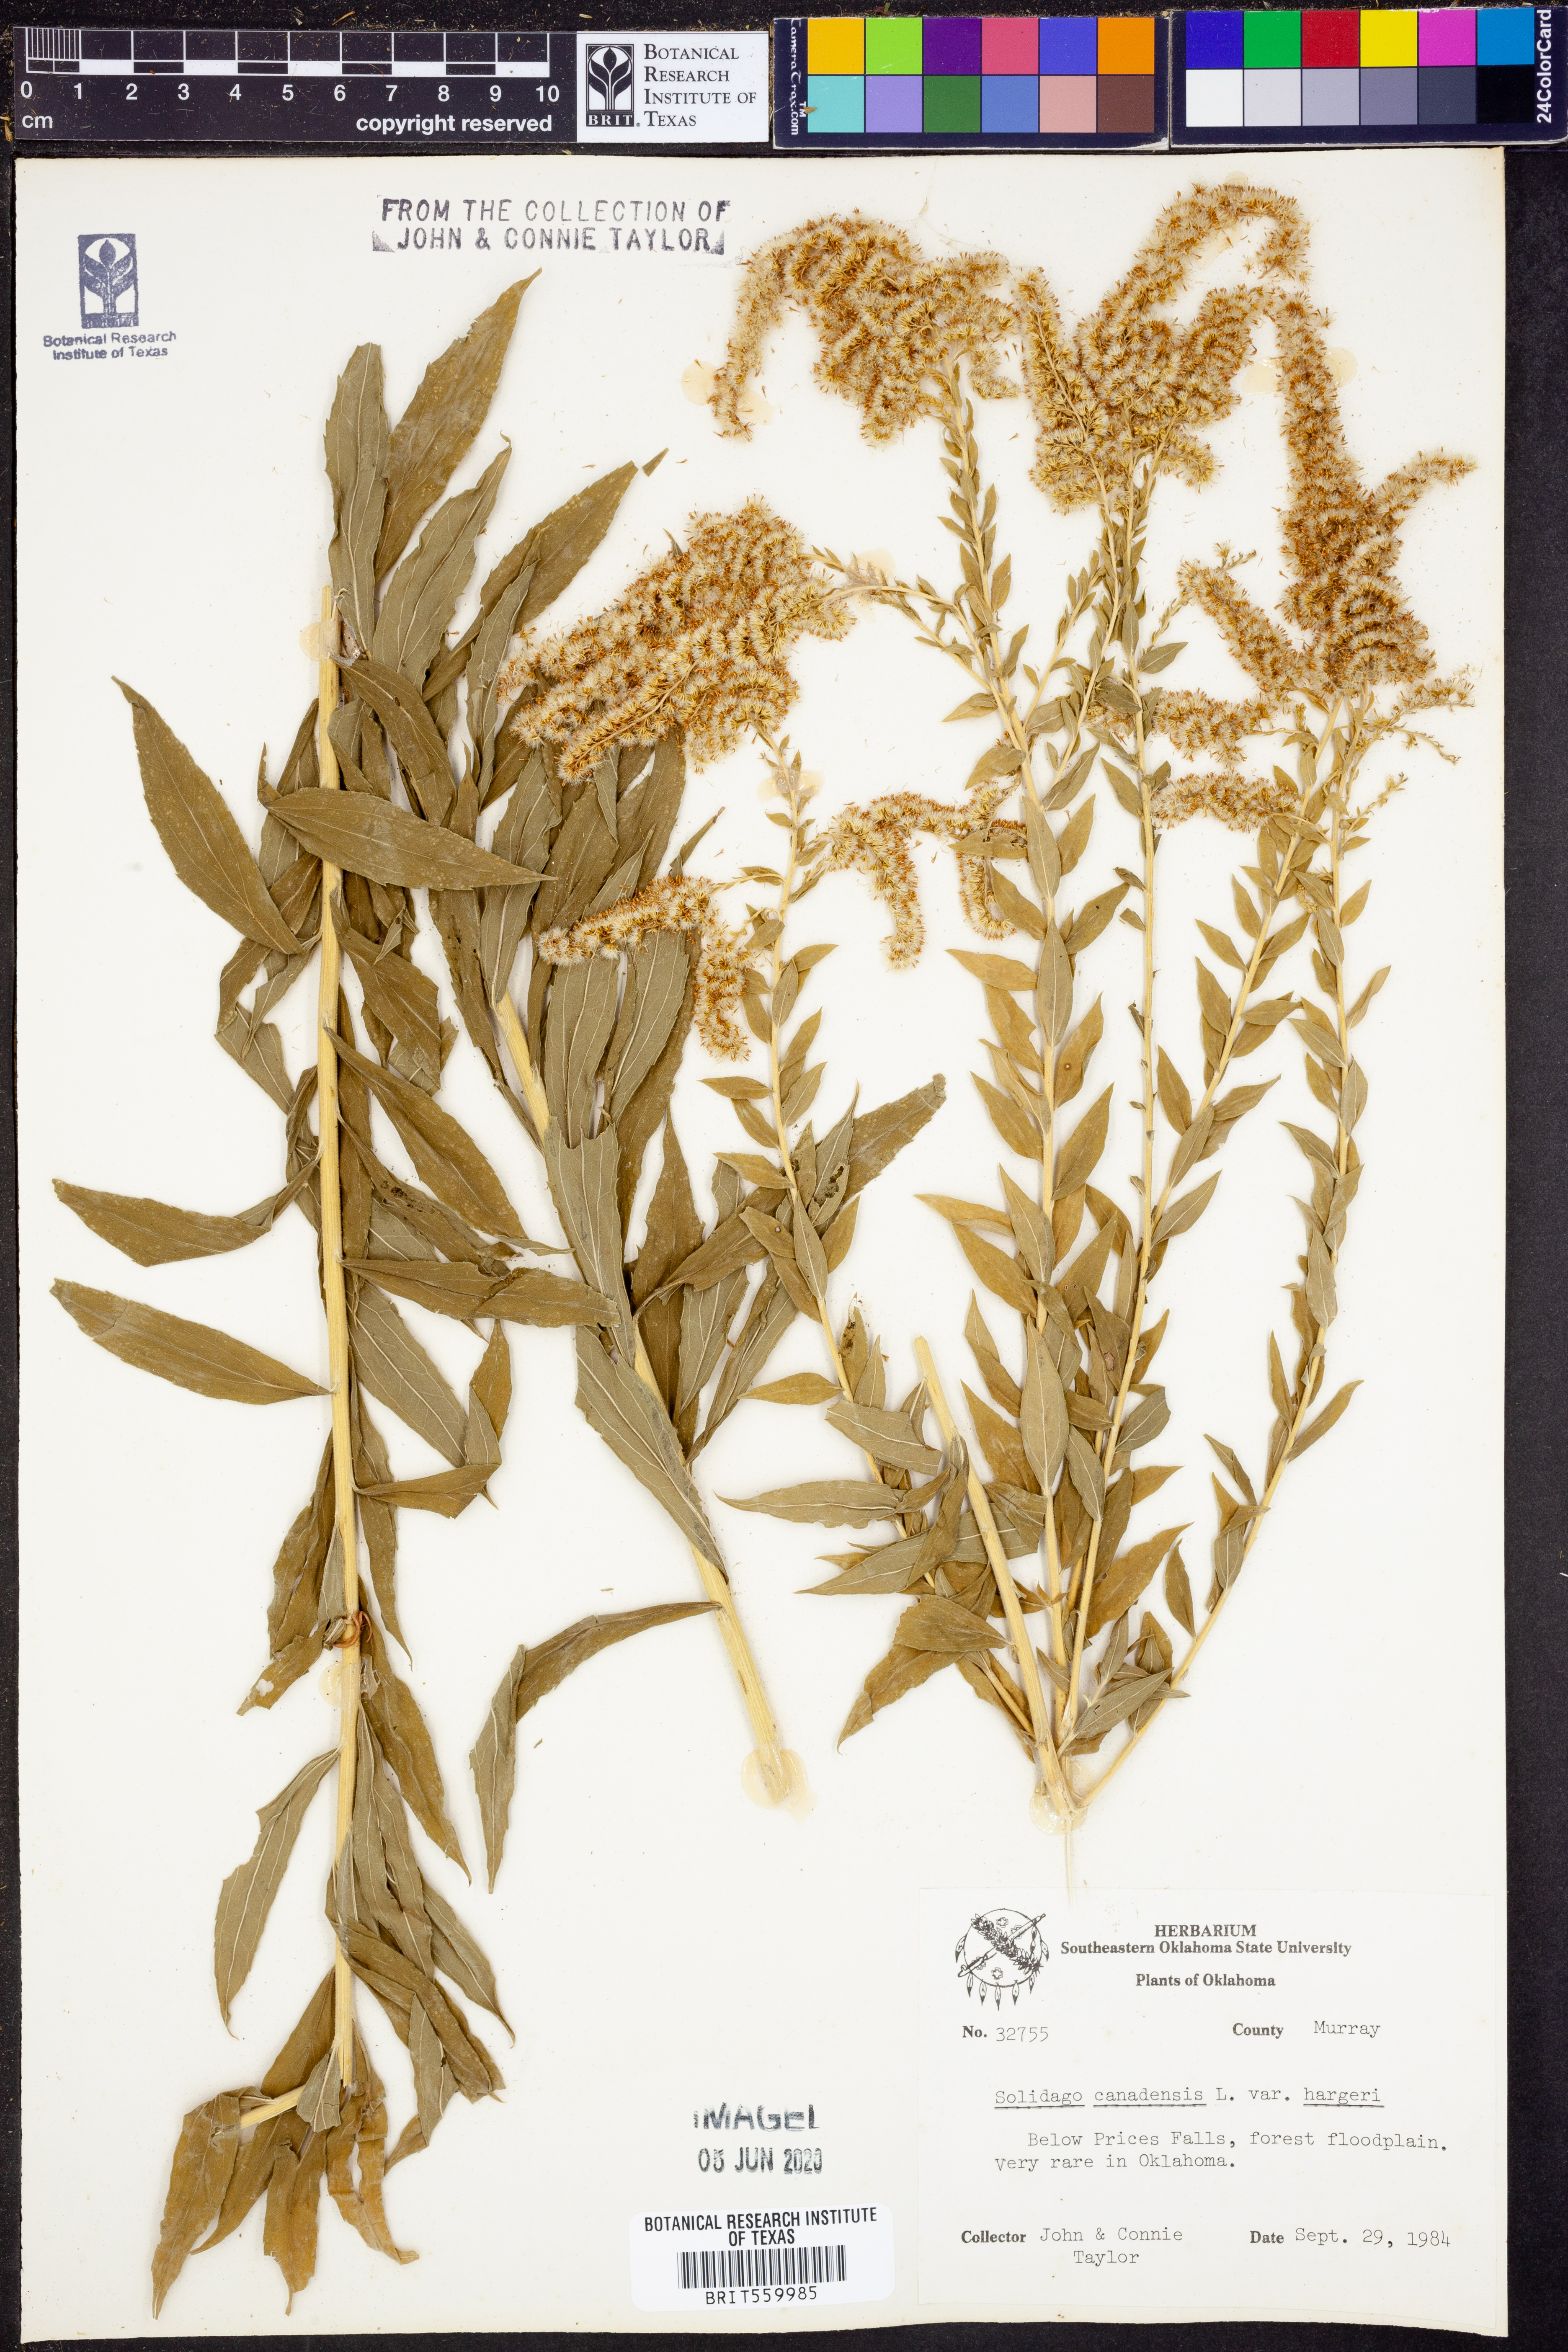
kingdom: Plantae
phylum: Tracheophyta
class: Magnoliopsida
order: Asterales
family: Asteraceae
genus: Solidago
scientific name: Solidago canadensis
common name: Canada goldenrod
